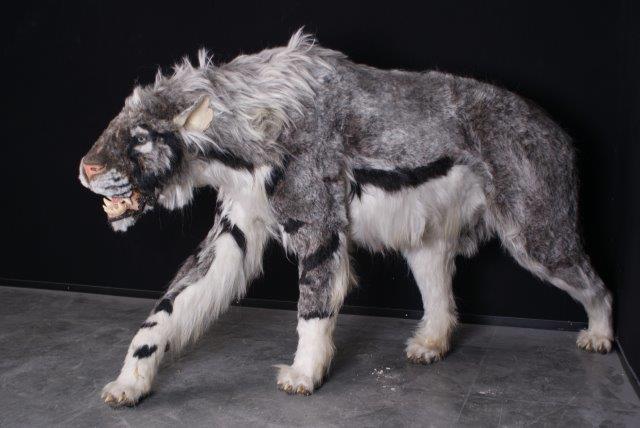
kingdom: Animalia
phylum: Chordata
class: Mammalia
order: Carnivora
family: Felidae
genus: Homotherium
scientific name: Homotherium latidens
